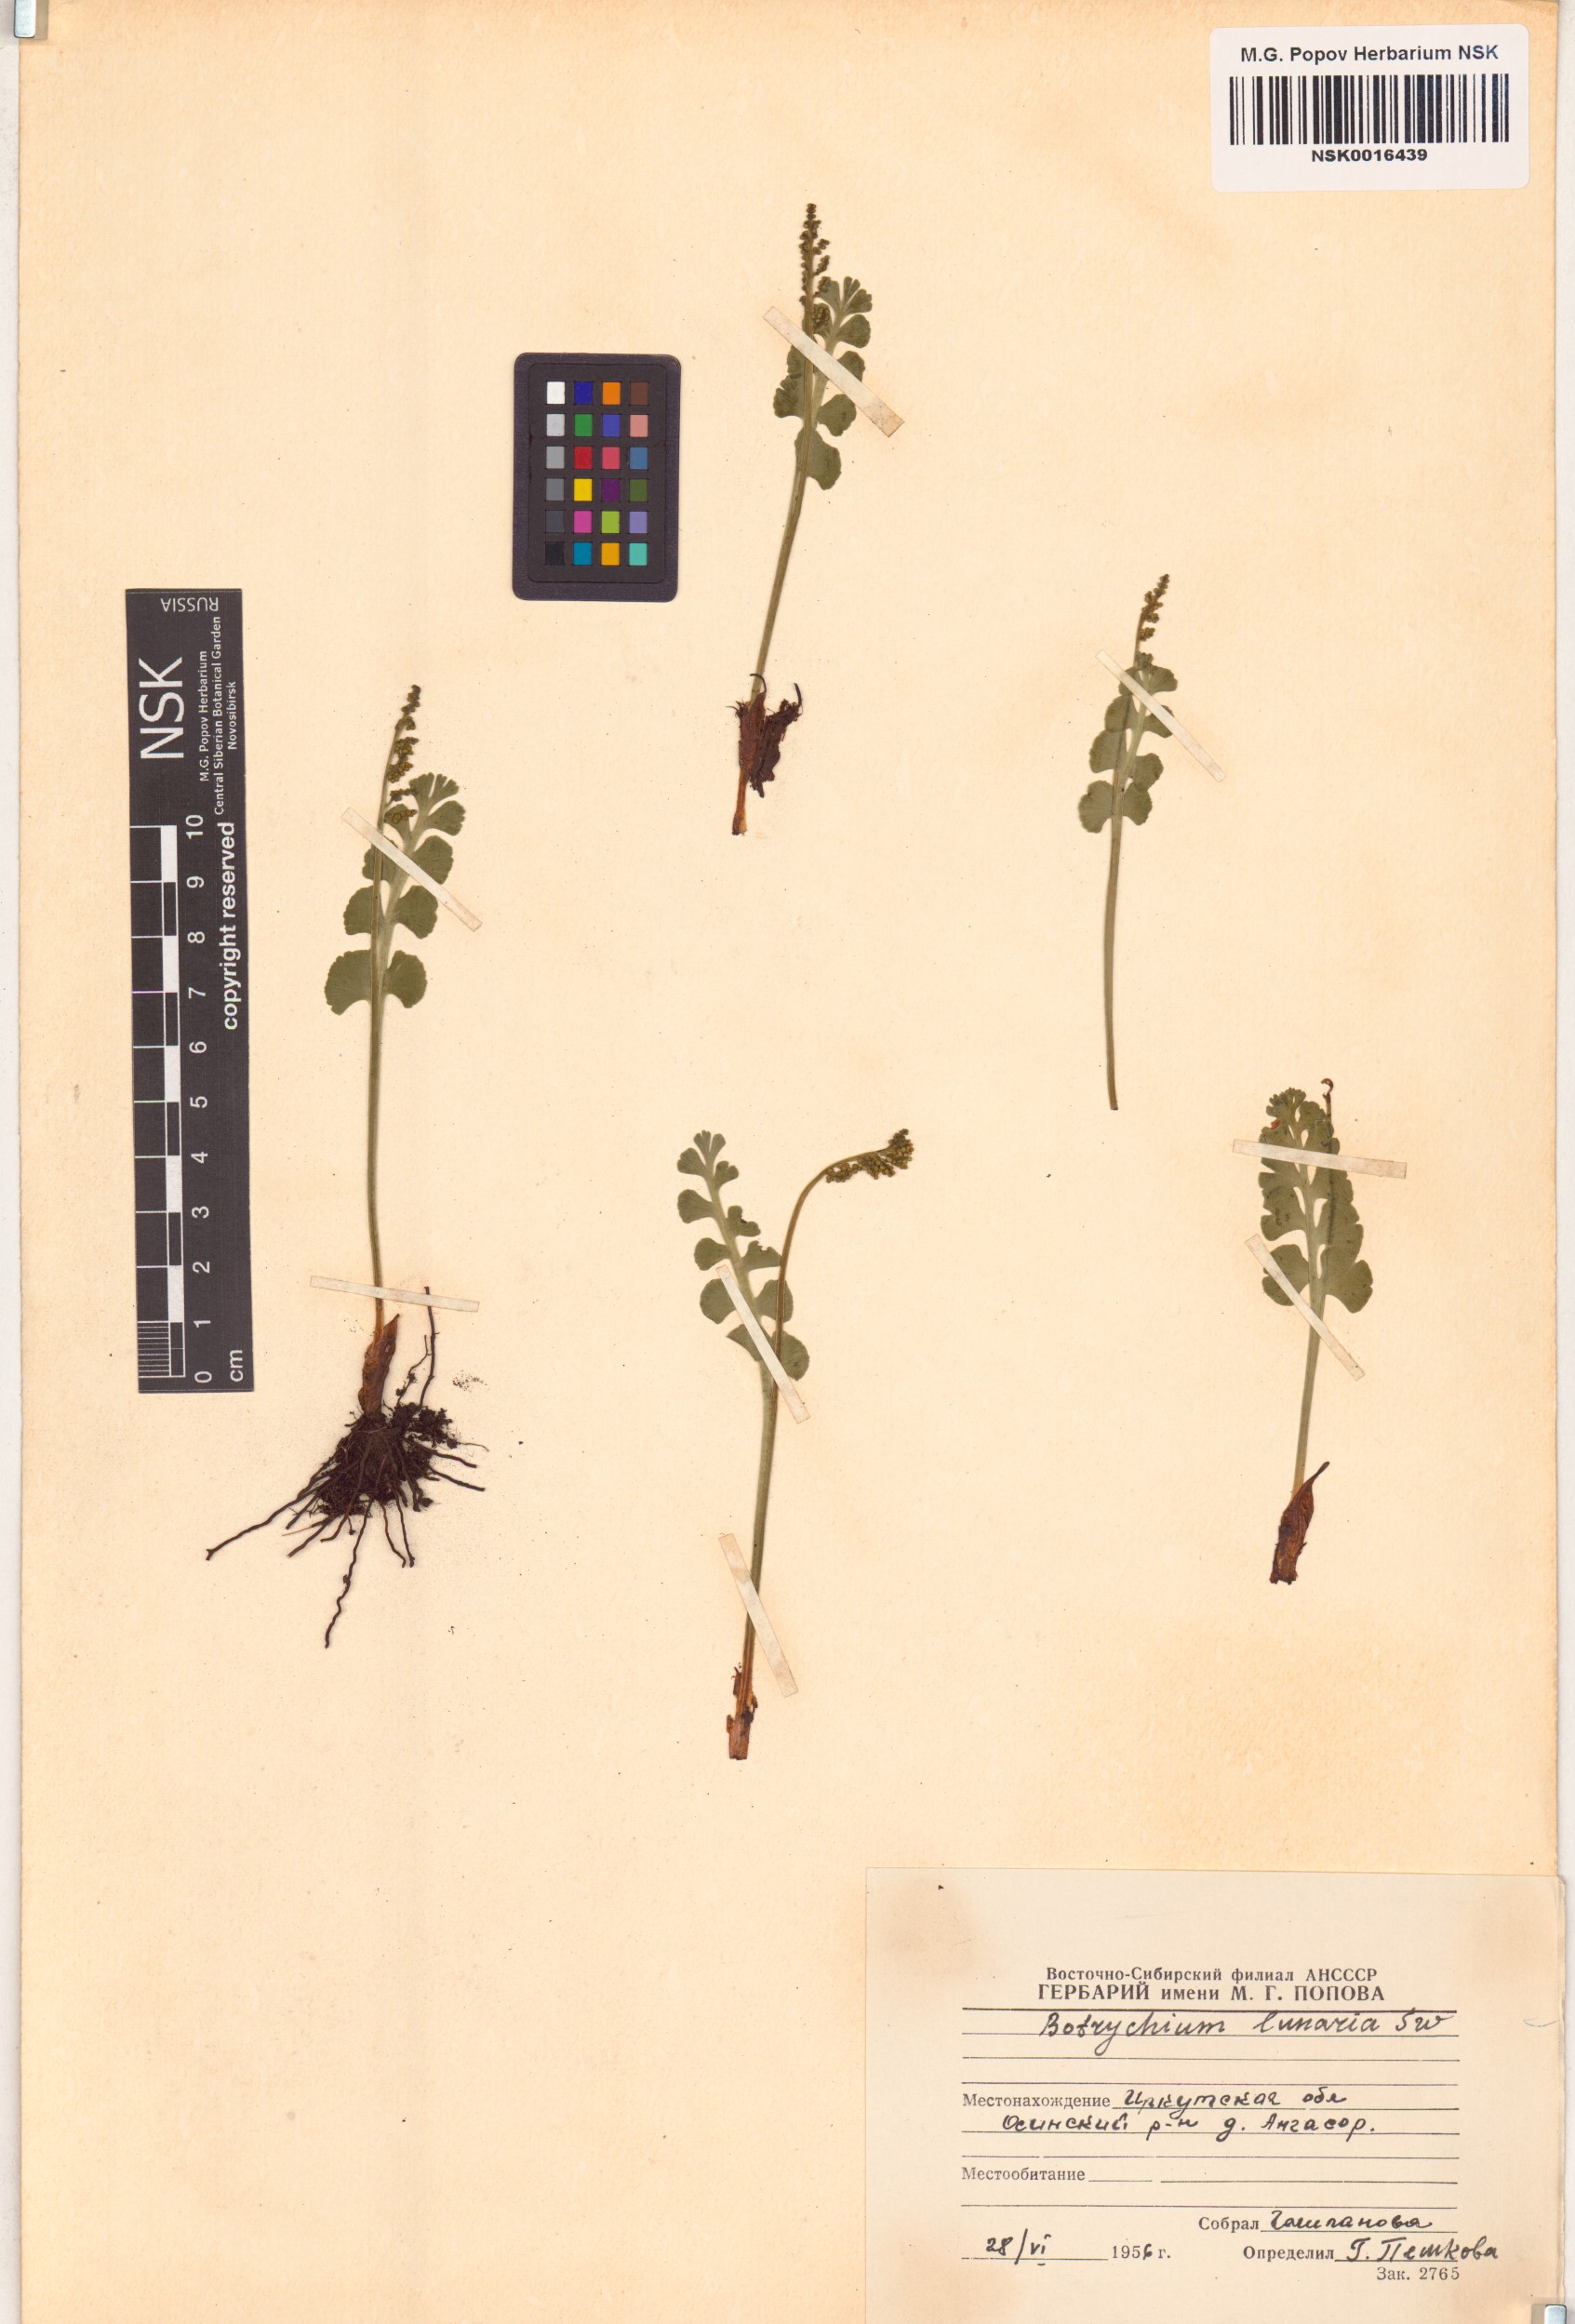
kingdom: Plantae
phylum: Tracheophyta
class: Polypodiopsida
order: Ophioglossales
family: Ophioglossaceae
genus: Botrychium
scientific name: Botrychium lunaria
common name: Moonwort
